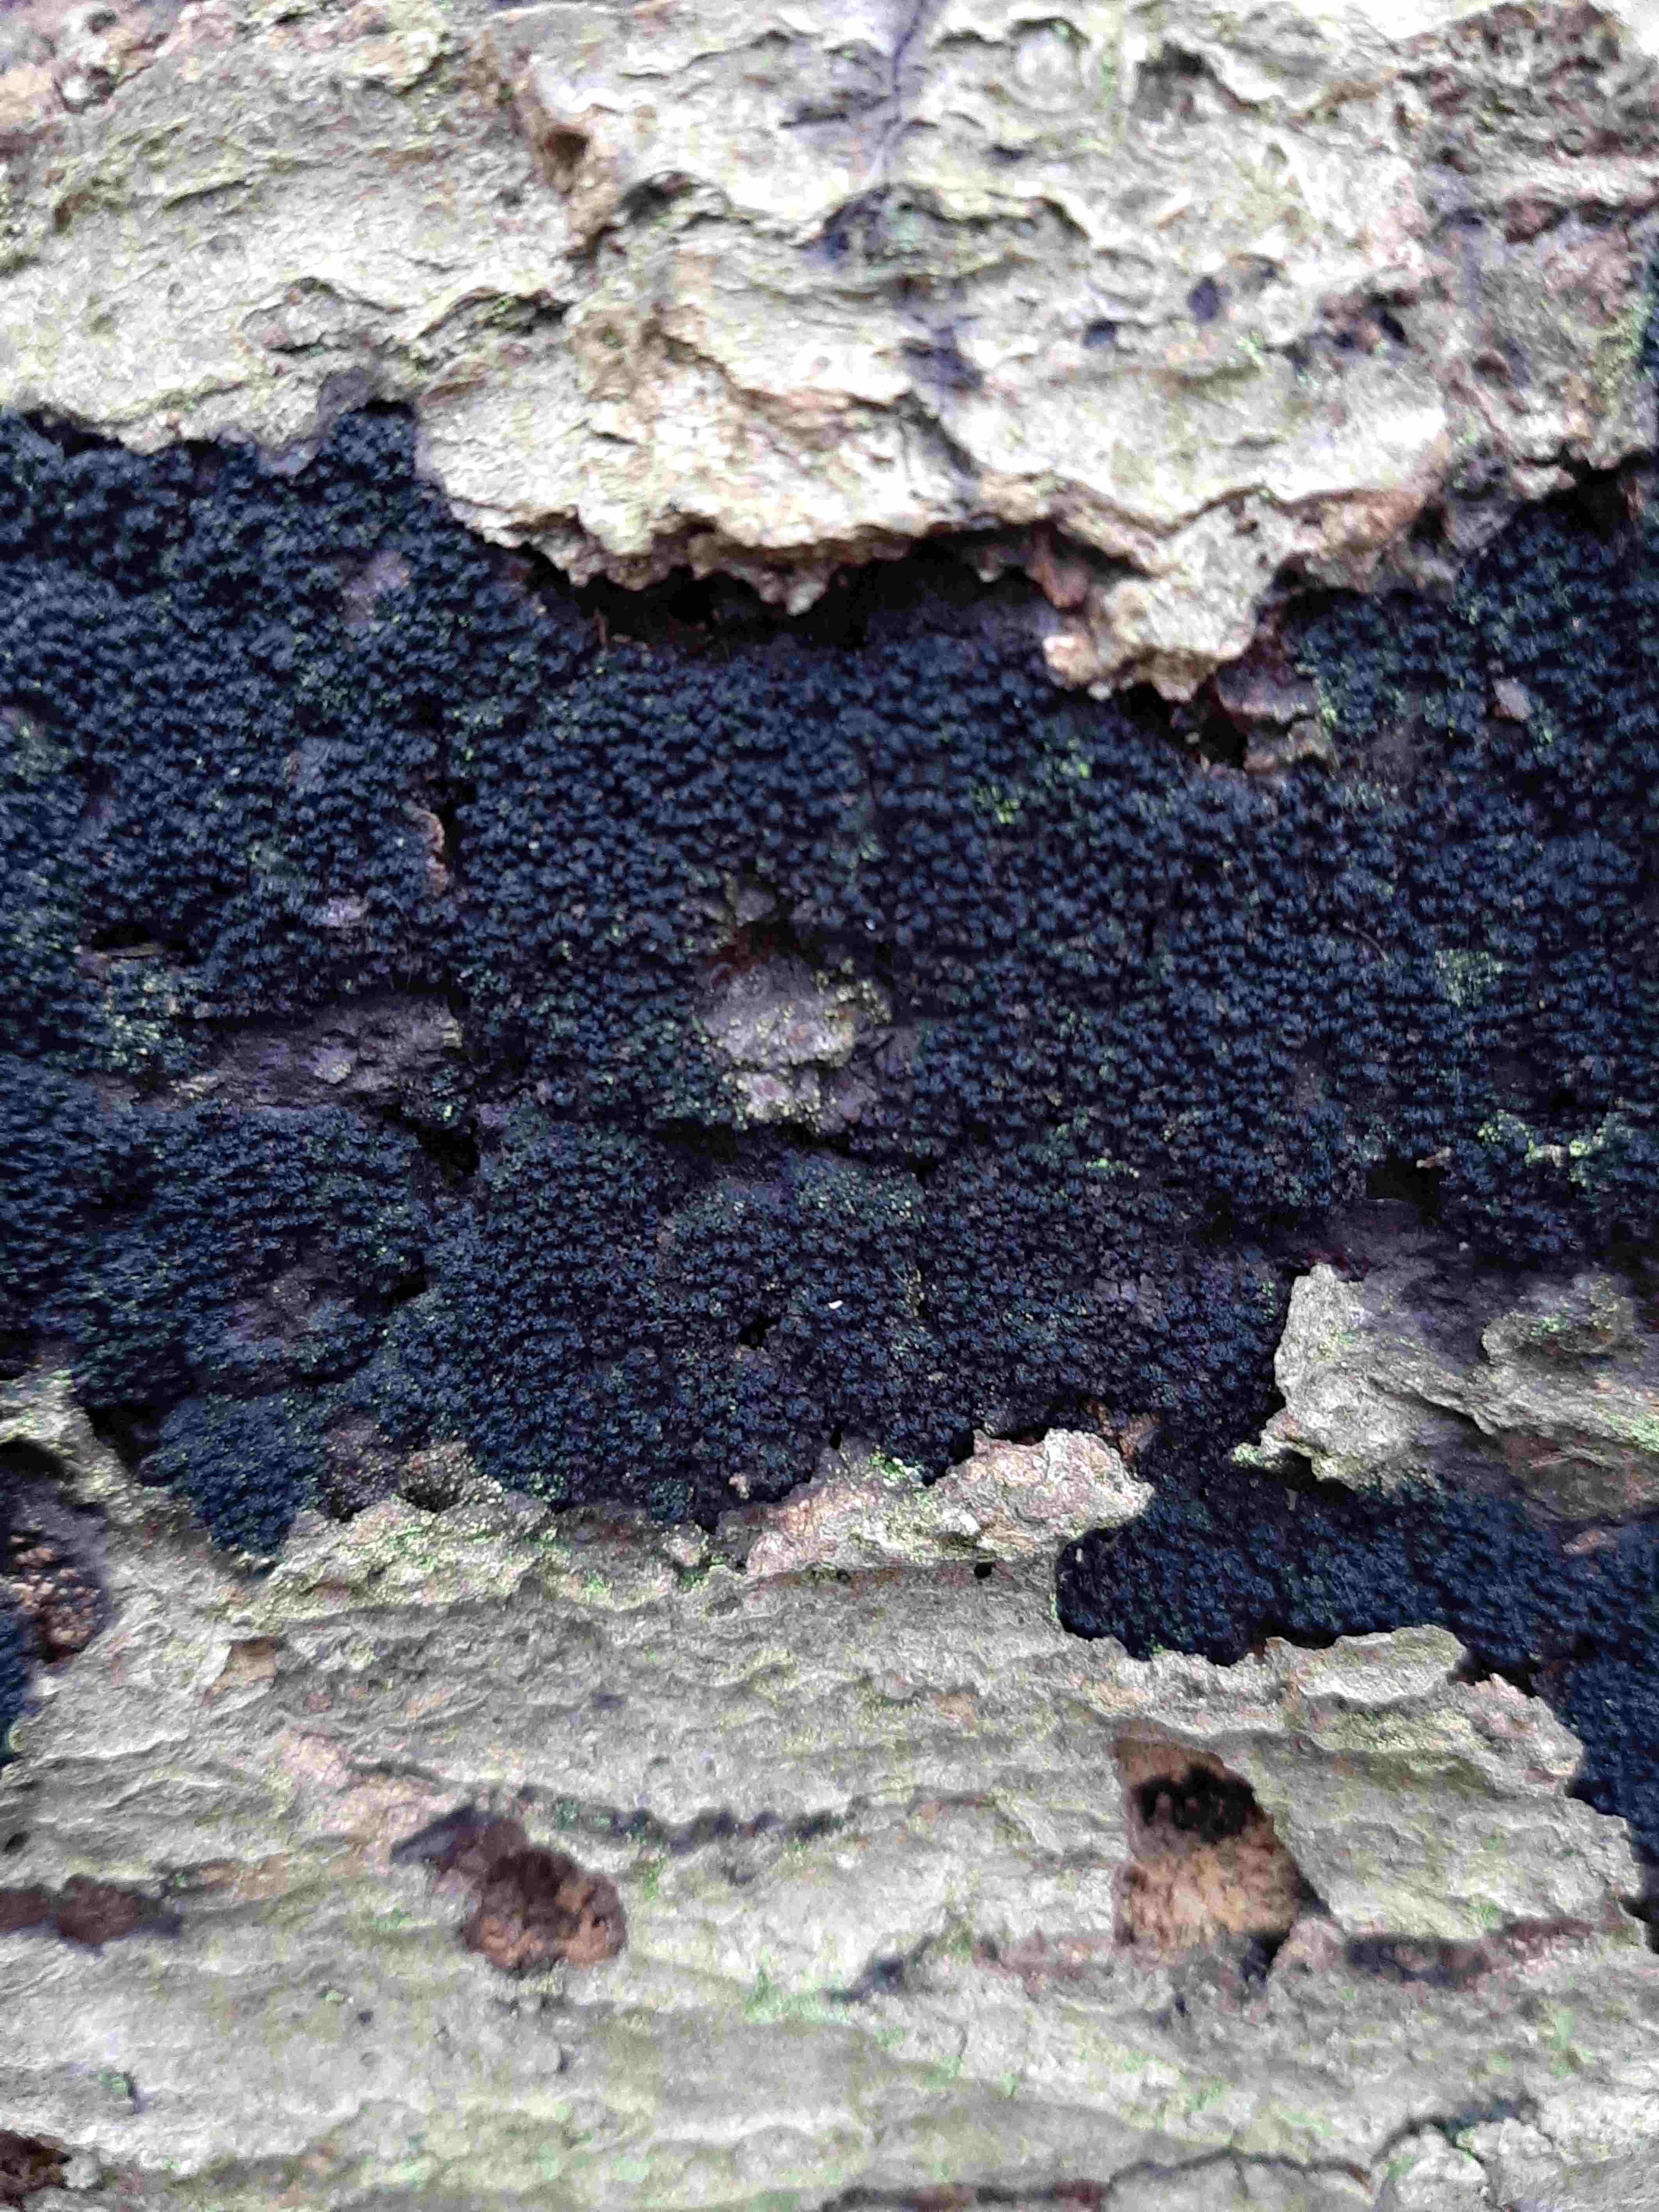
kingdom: Fungi
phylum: Ascomycota
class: Sordariomycetes
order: Xylariales
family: Diatrypaceae
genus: Eutypa
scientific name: Eutypa spinosa
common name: grov kulskorpe
